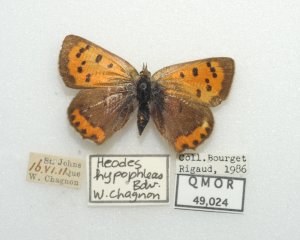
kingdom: Animalia
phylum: Arthropoda
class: Insecta
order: Lepidoptera
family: Lycaenidae
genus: Lycaena
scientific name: Lycaena phlaeas
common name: American Copper
